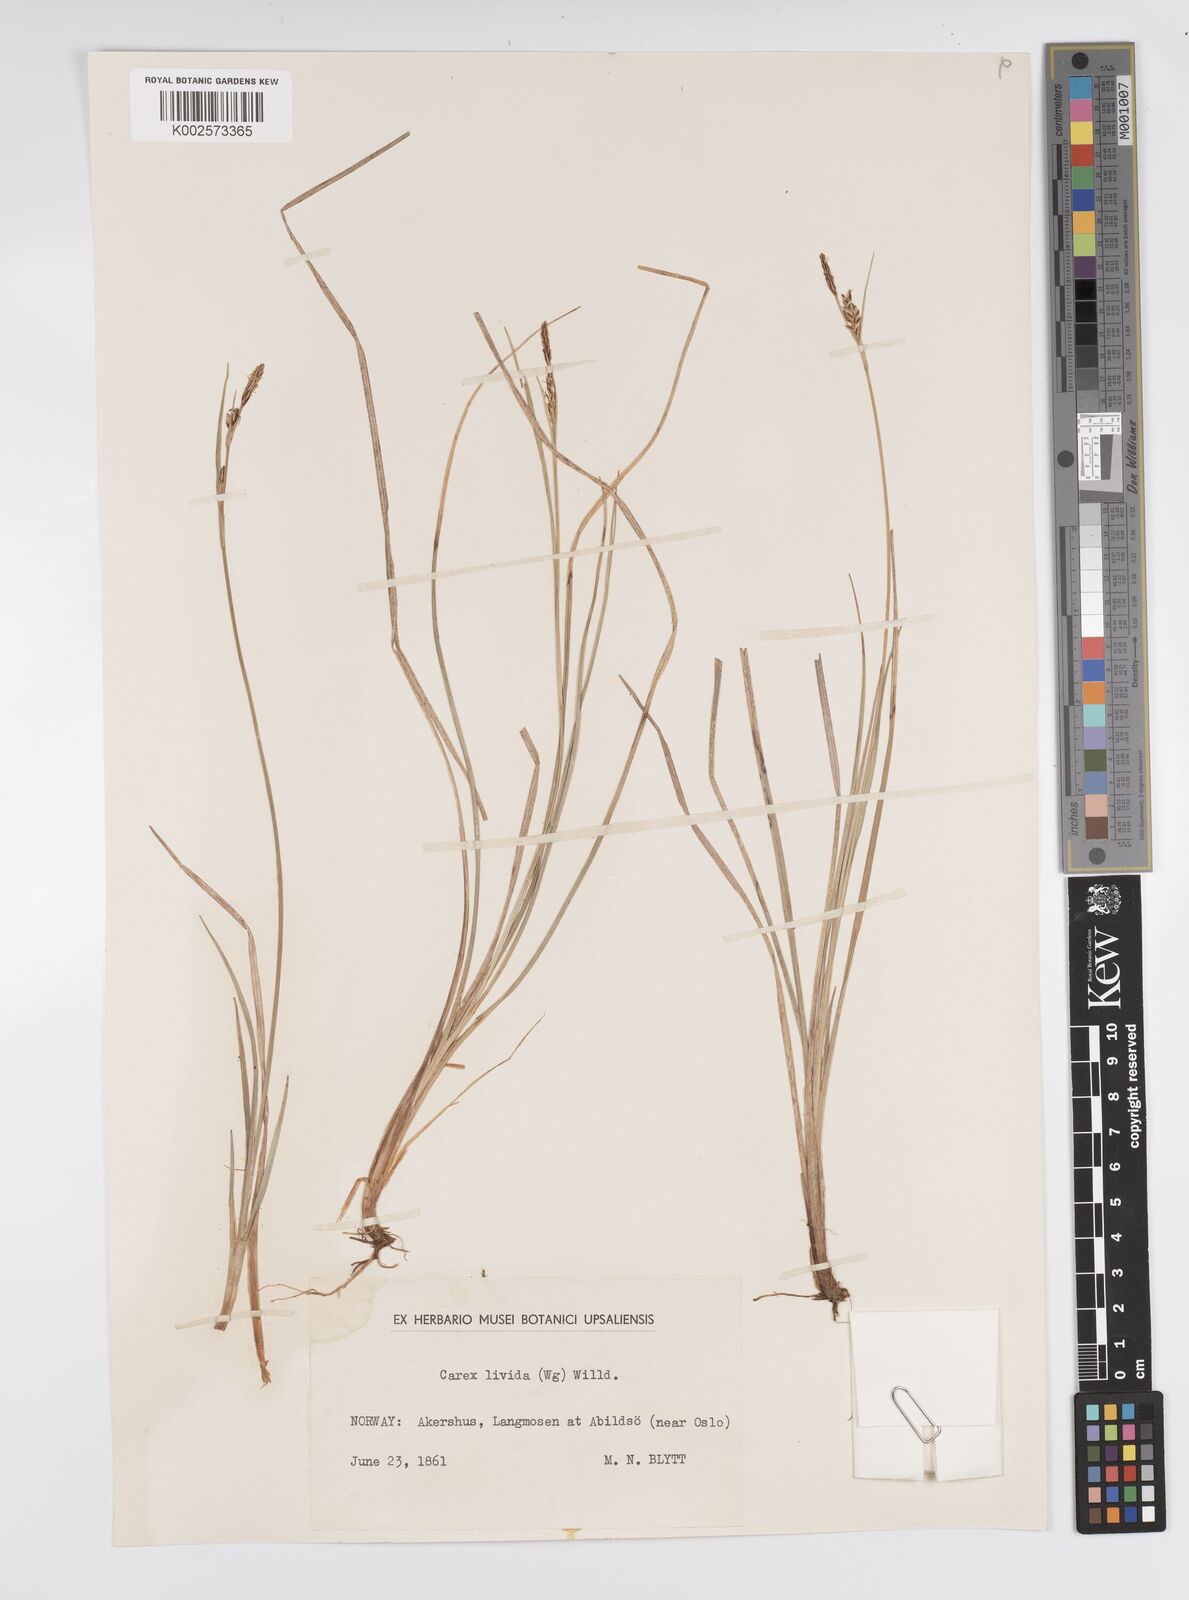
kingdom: Plantae
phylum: Tracheophyta
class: Liliopsida
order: Poales
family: Cyperaceae
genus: Carex
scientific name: Carex livida
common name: Livid sedge
